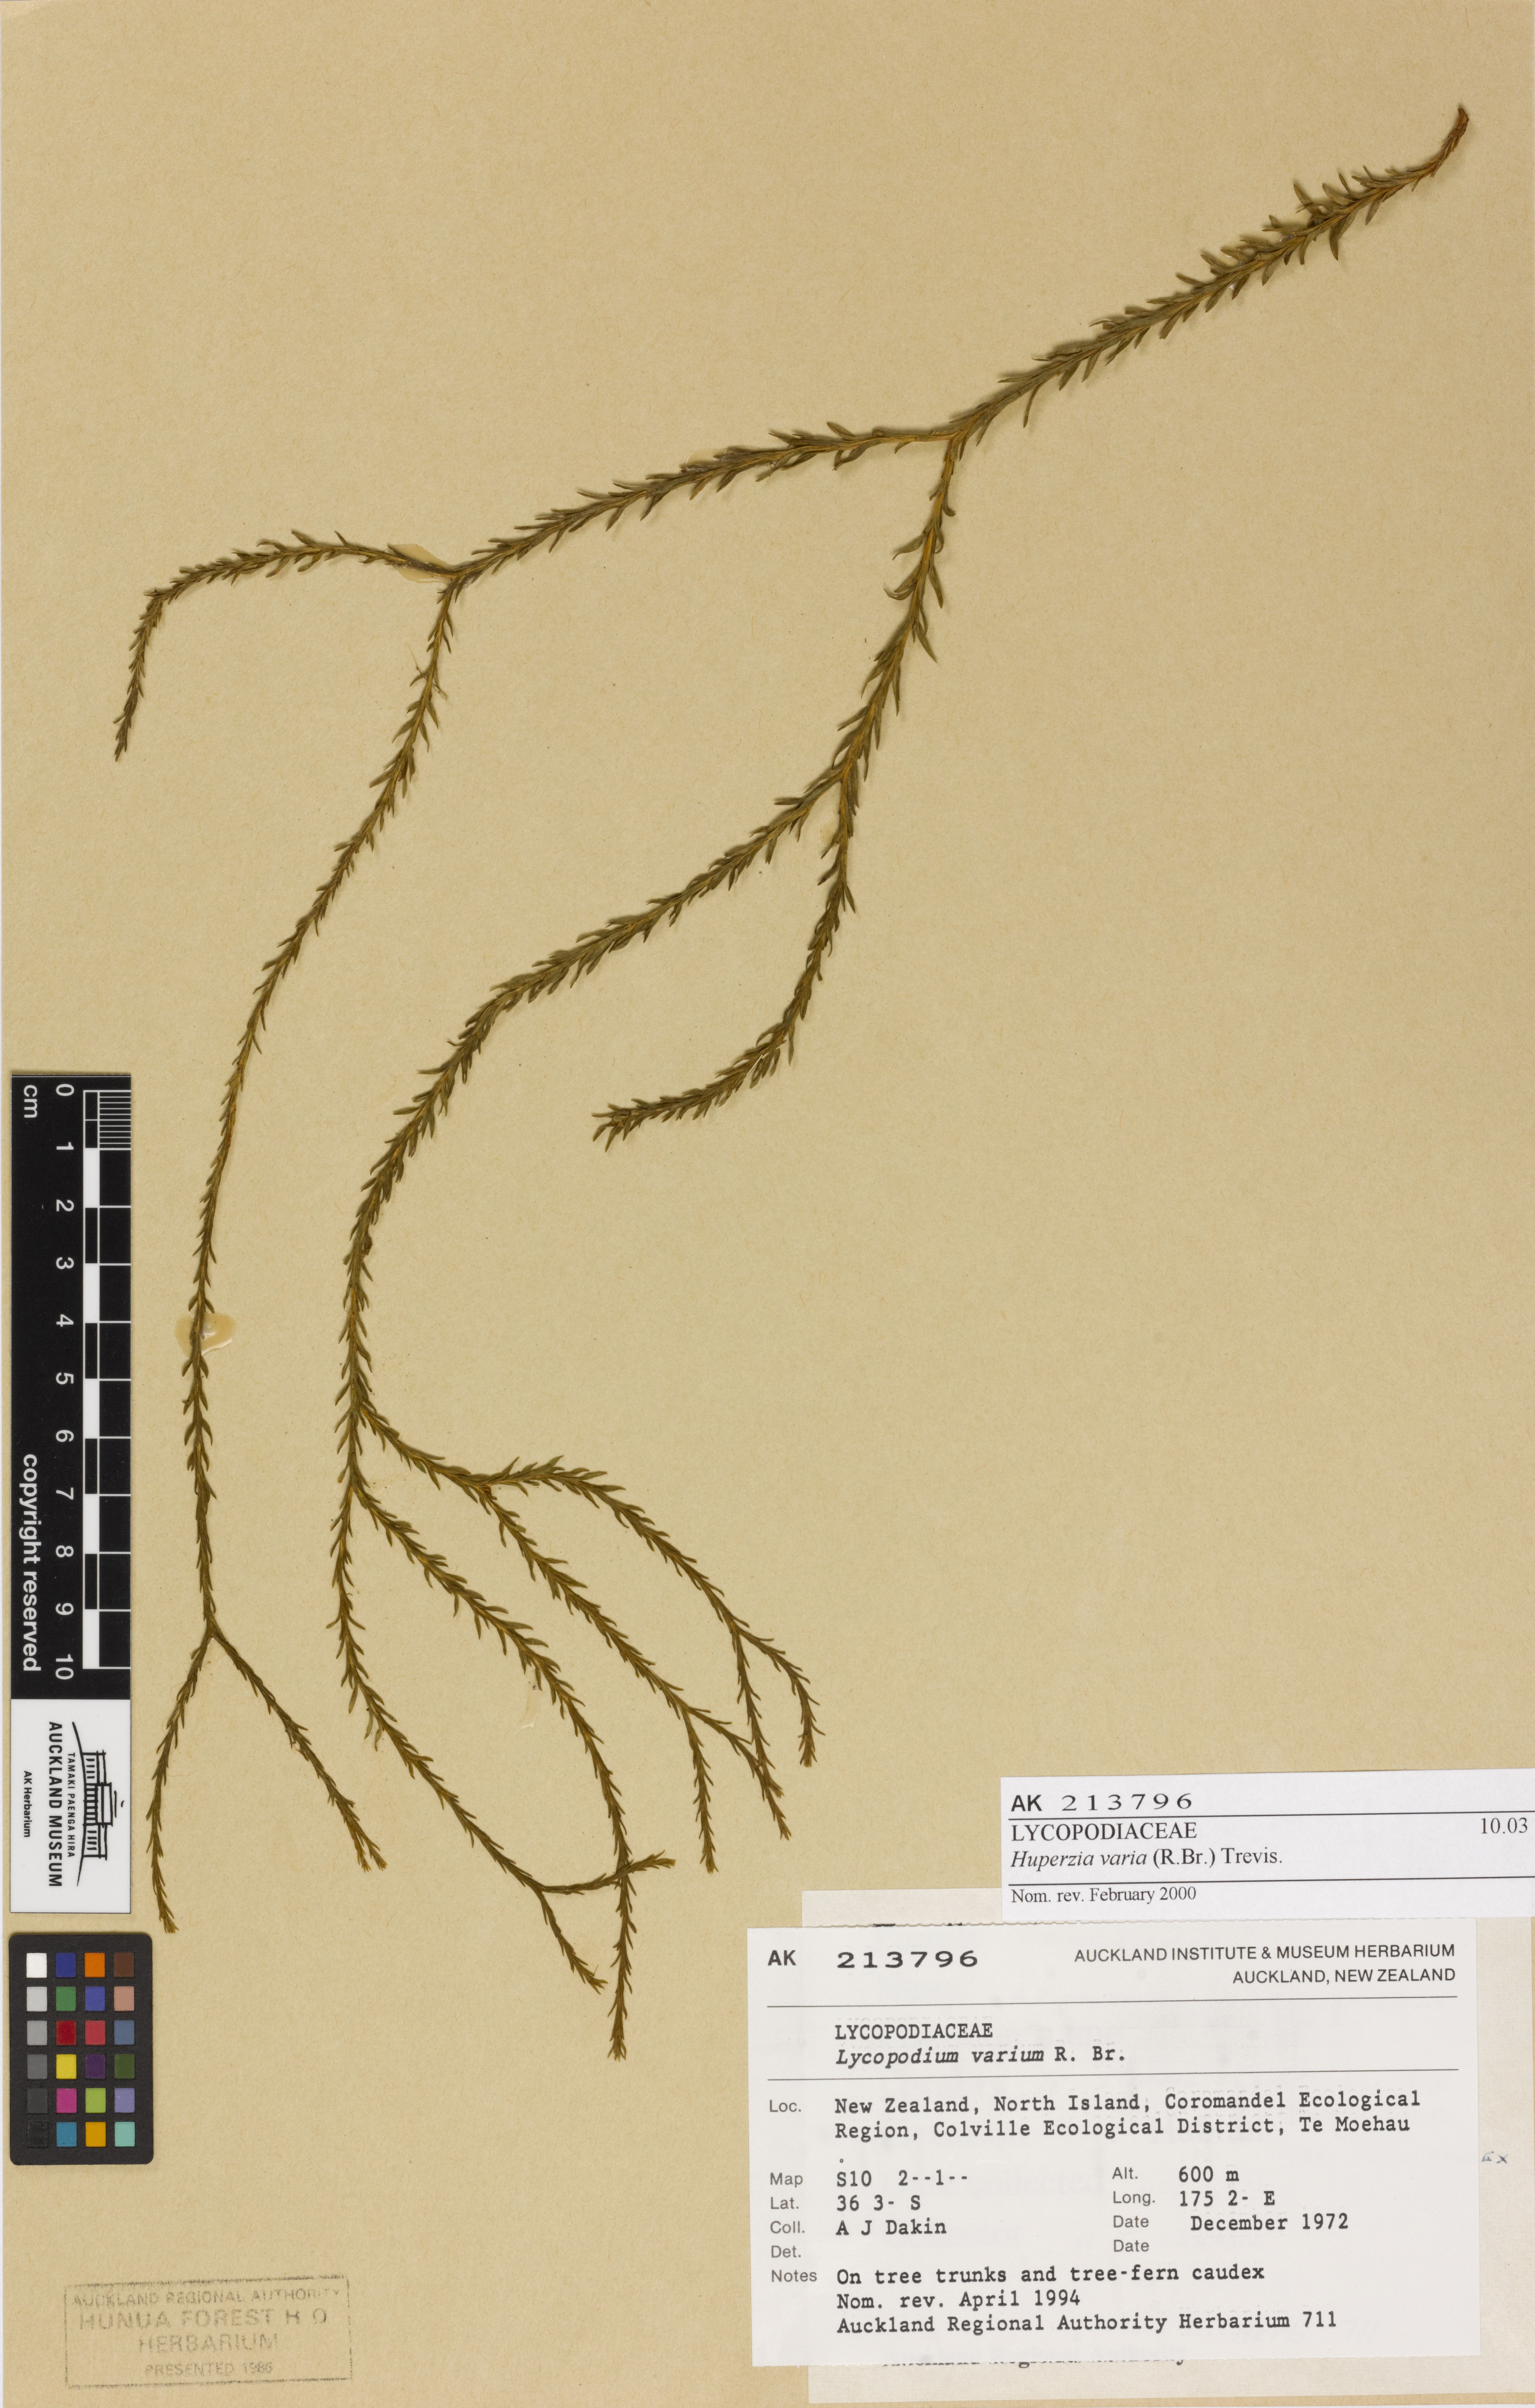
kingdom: Plantae
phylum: Tracheophyta
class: Lycopodiopsida
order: Lycopodiales
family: Lycopodiaceae
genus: Phlegmariurus
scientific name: Phlegmariurus
